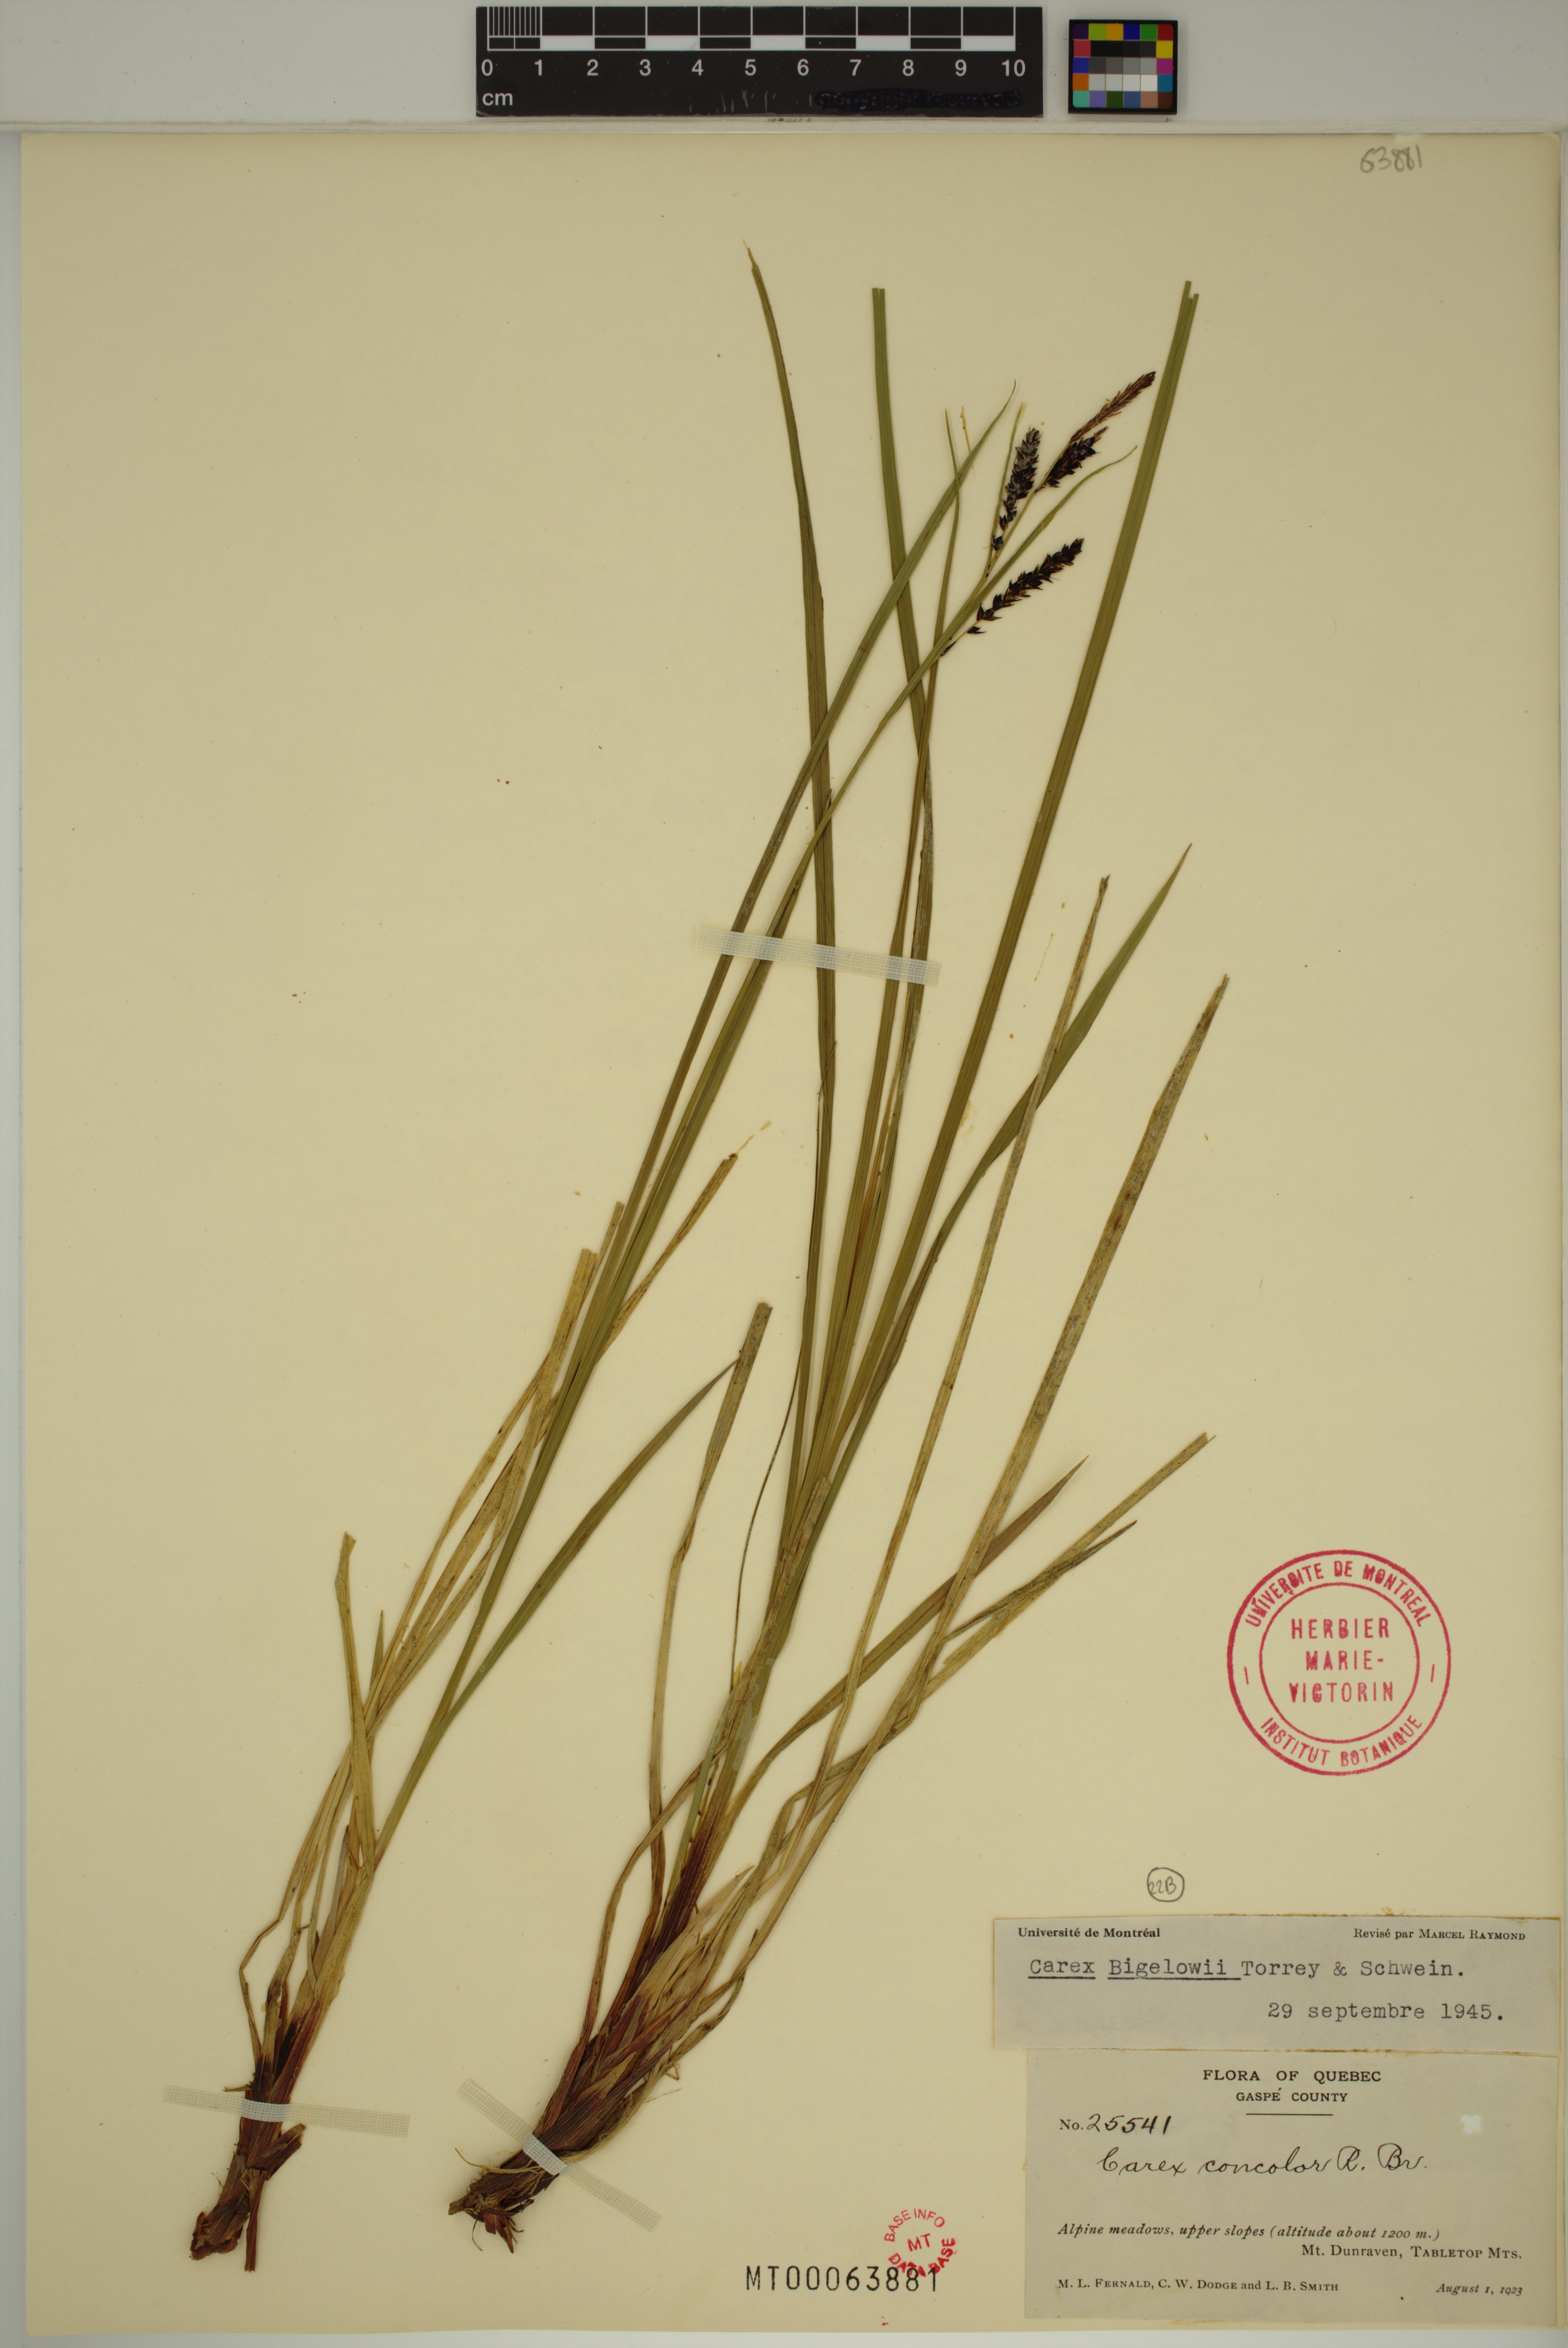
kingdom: Plantae
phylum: Tracheophyta
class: Liliopsida
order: Poales
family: Cyperaceae
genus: Carex
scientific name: Carex bigelowii
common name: Stiff sedge
